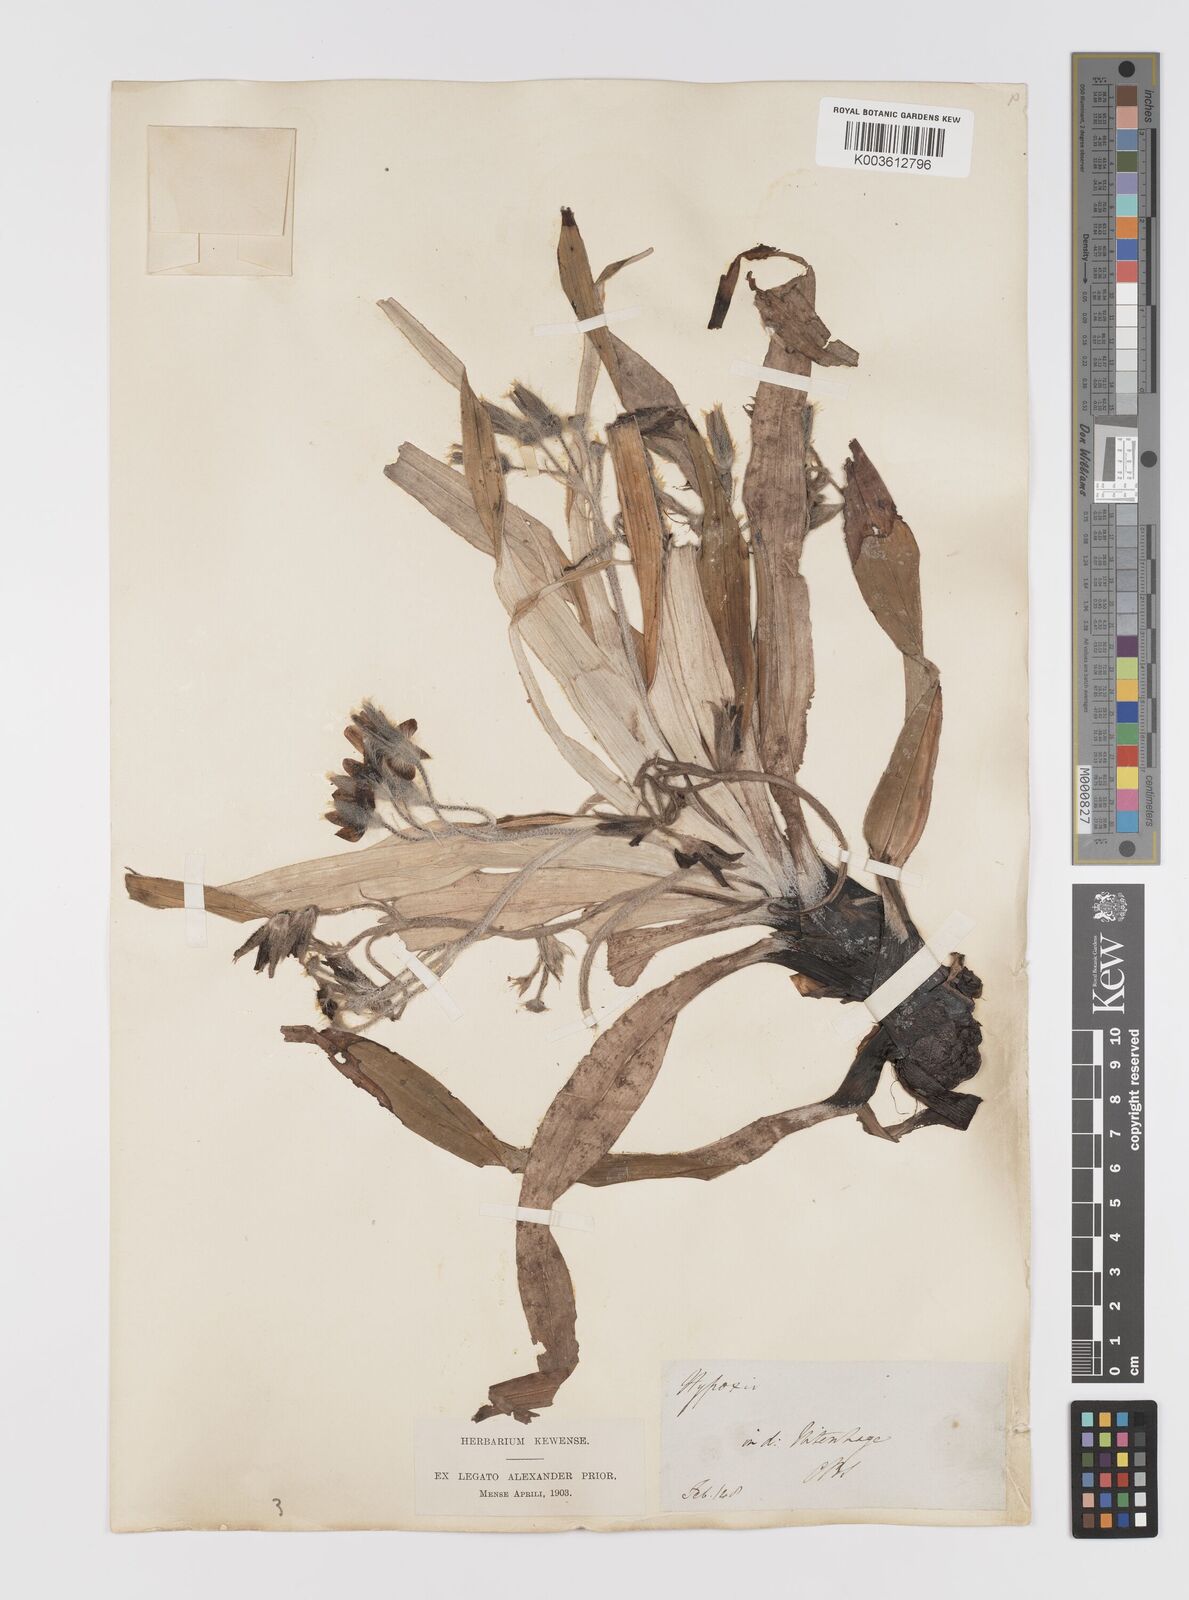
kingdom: Plantae
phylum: Tracheophyta
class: Liliopsida
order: Asparagales
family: Hypoxidaceae
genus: Hypoxis
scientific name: Hypoxis stellipilis
